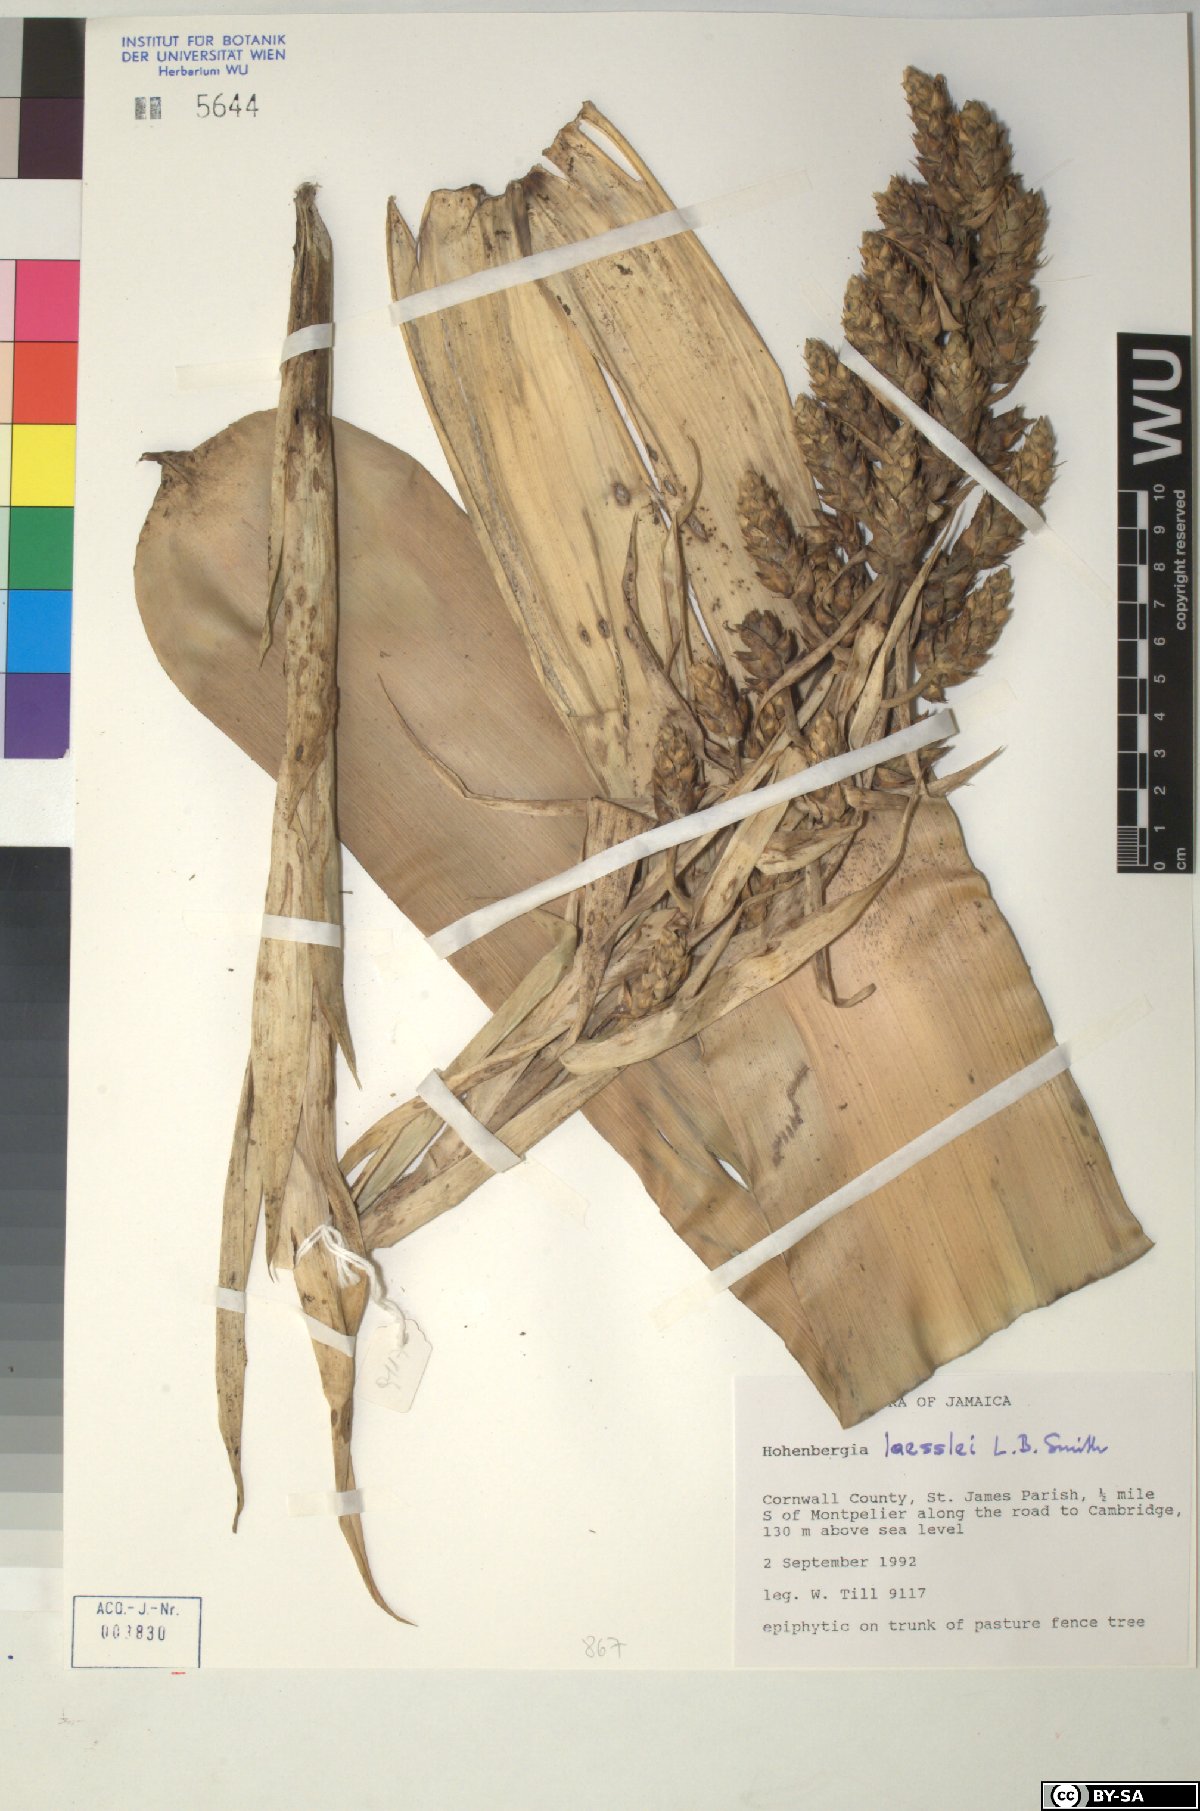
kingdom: Plantae
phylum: Tracheophyta
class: Liliopsida
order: Poales
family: Bromeliaceae
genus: Wittmackia
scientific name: Wittmackia laesslei
